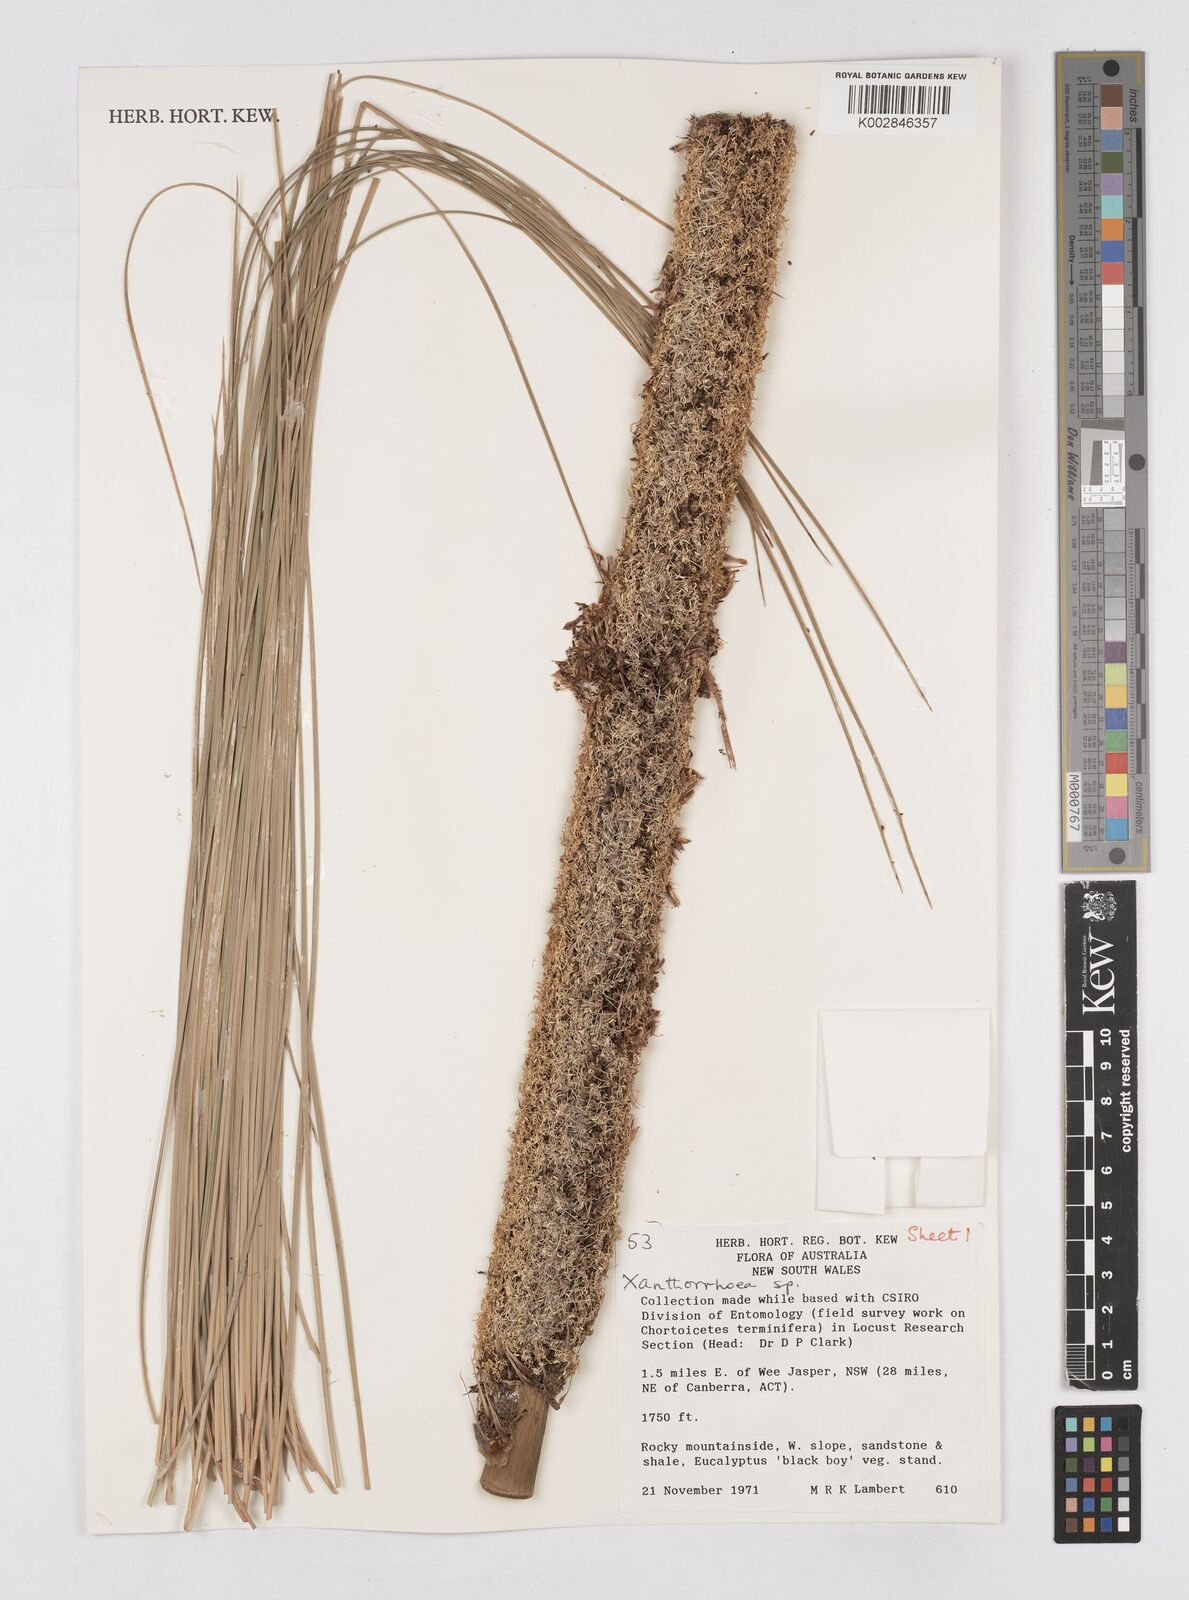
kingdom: Plantae
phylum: Tracheophyta
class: Liliopsida
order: Asparagales
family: Asphodelaceae
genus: Xanthorrhoea
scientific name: Xanthorrhoea
